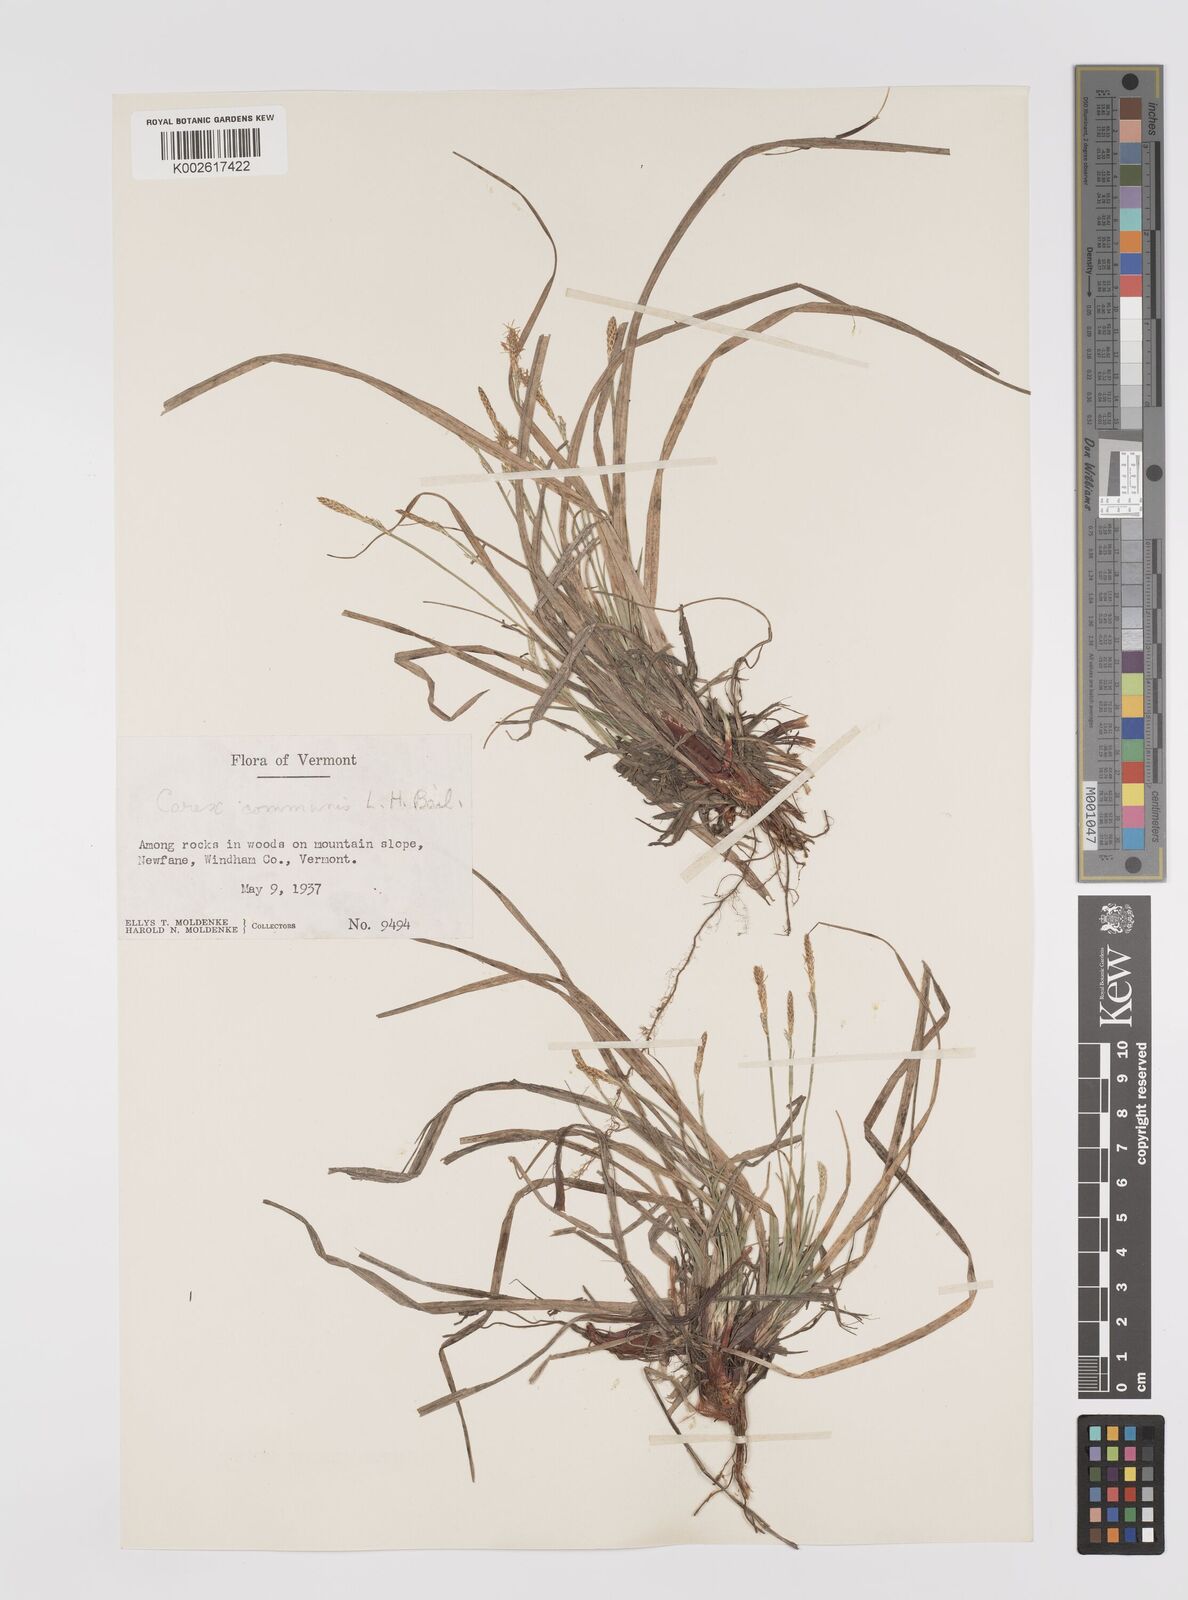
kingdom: Plantae
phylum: Tracheophyta
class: Liliopsida
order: Poales
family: Cyperaceae
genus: Carex
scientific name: Carex communis
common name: Colonial oak sedge
